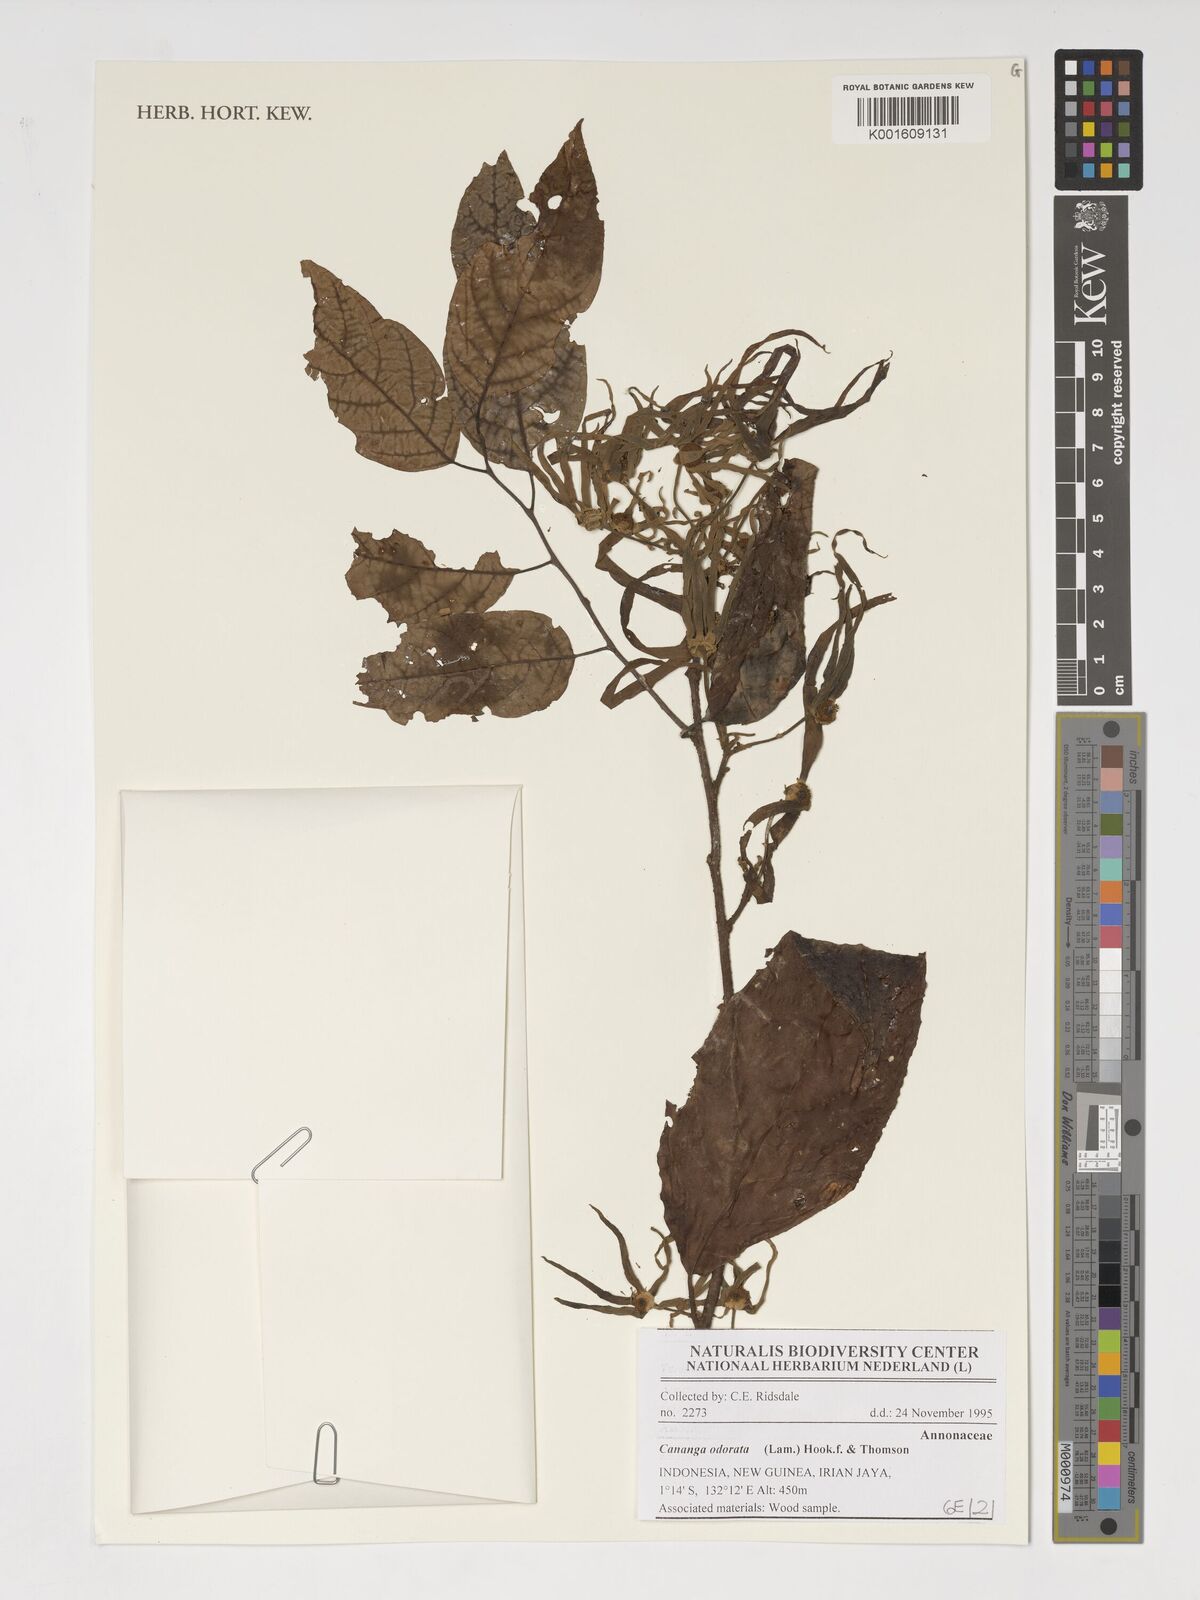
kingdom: Plantae
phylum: Tracheophyta
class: Magnoliopsida
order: Magnoliales
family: Annonaceae
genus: Cananga
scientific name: Cananga odorata
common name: Cananga tree
